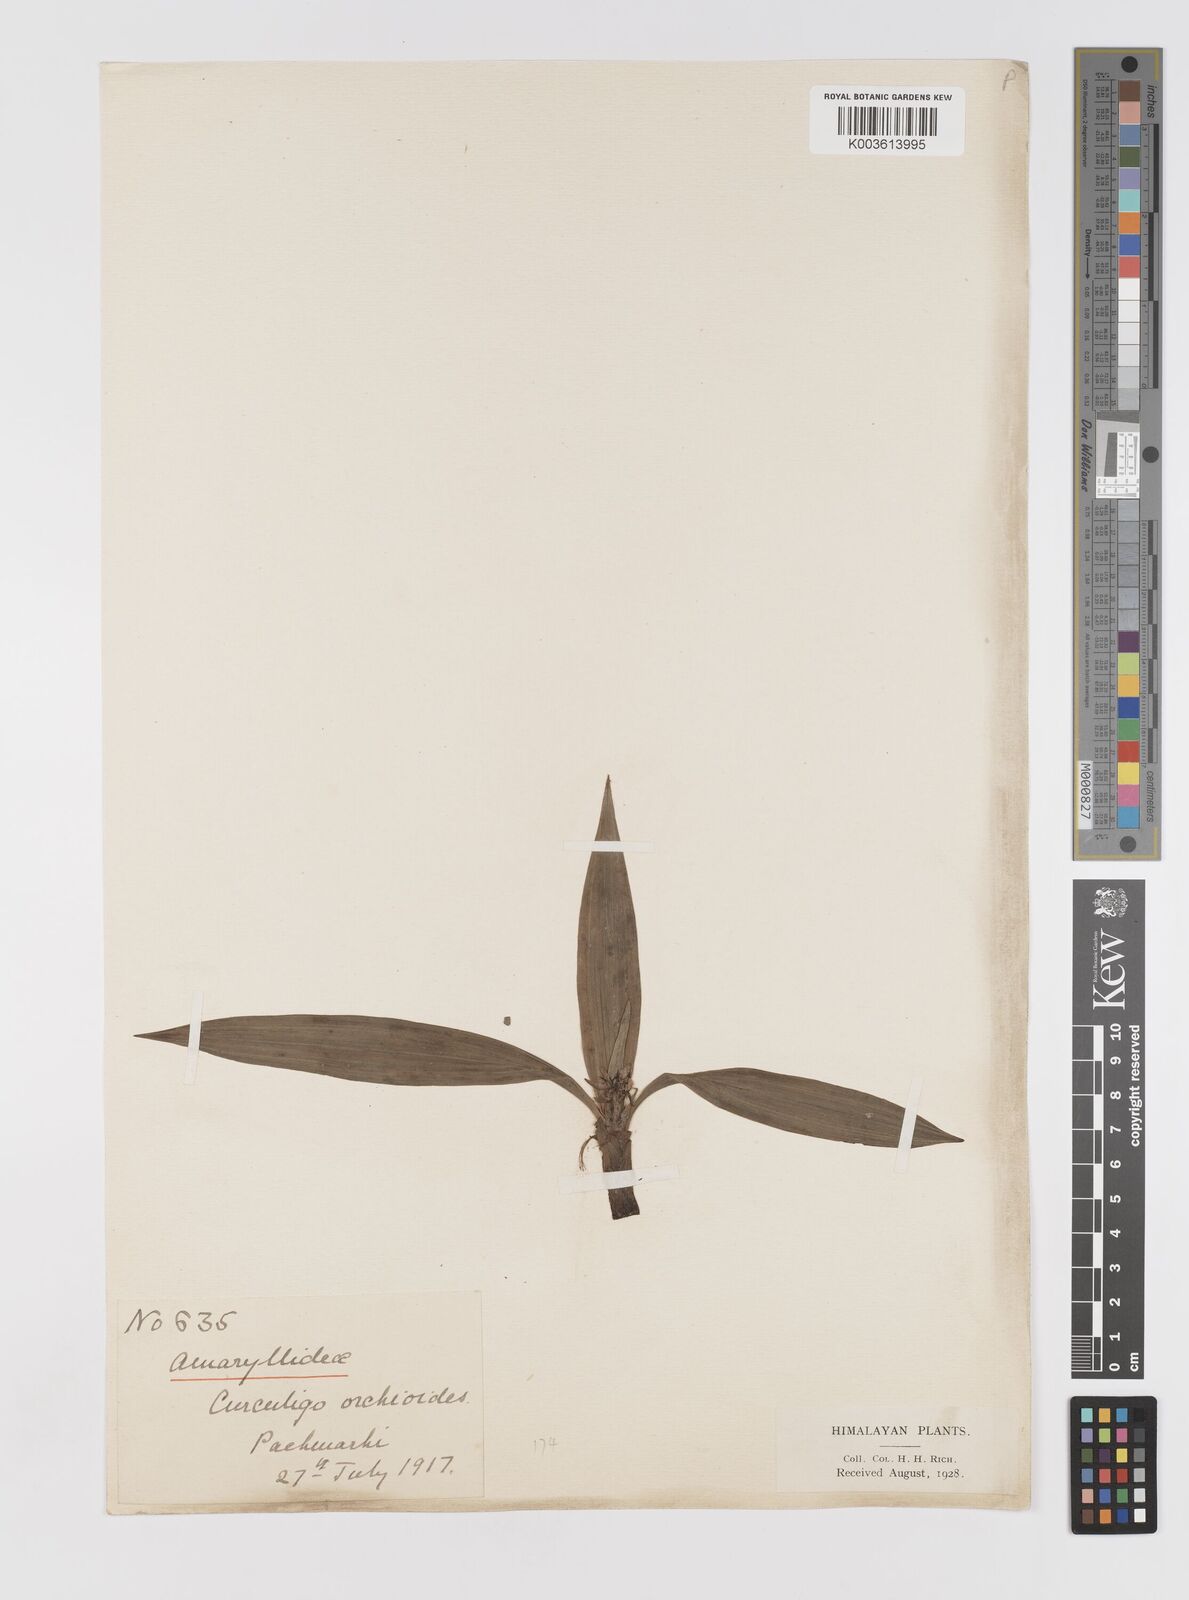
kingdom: Plantae
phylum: Tracheophyta
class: Liliopsida
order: Asparagales
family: Hypoxidaceae
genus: Curculigo
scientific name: Curculigo orchioides
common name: Golden eye-grass
